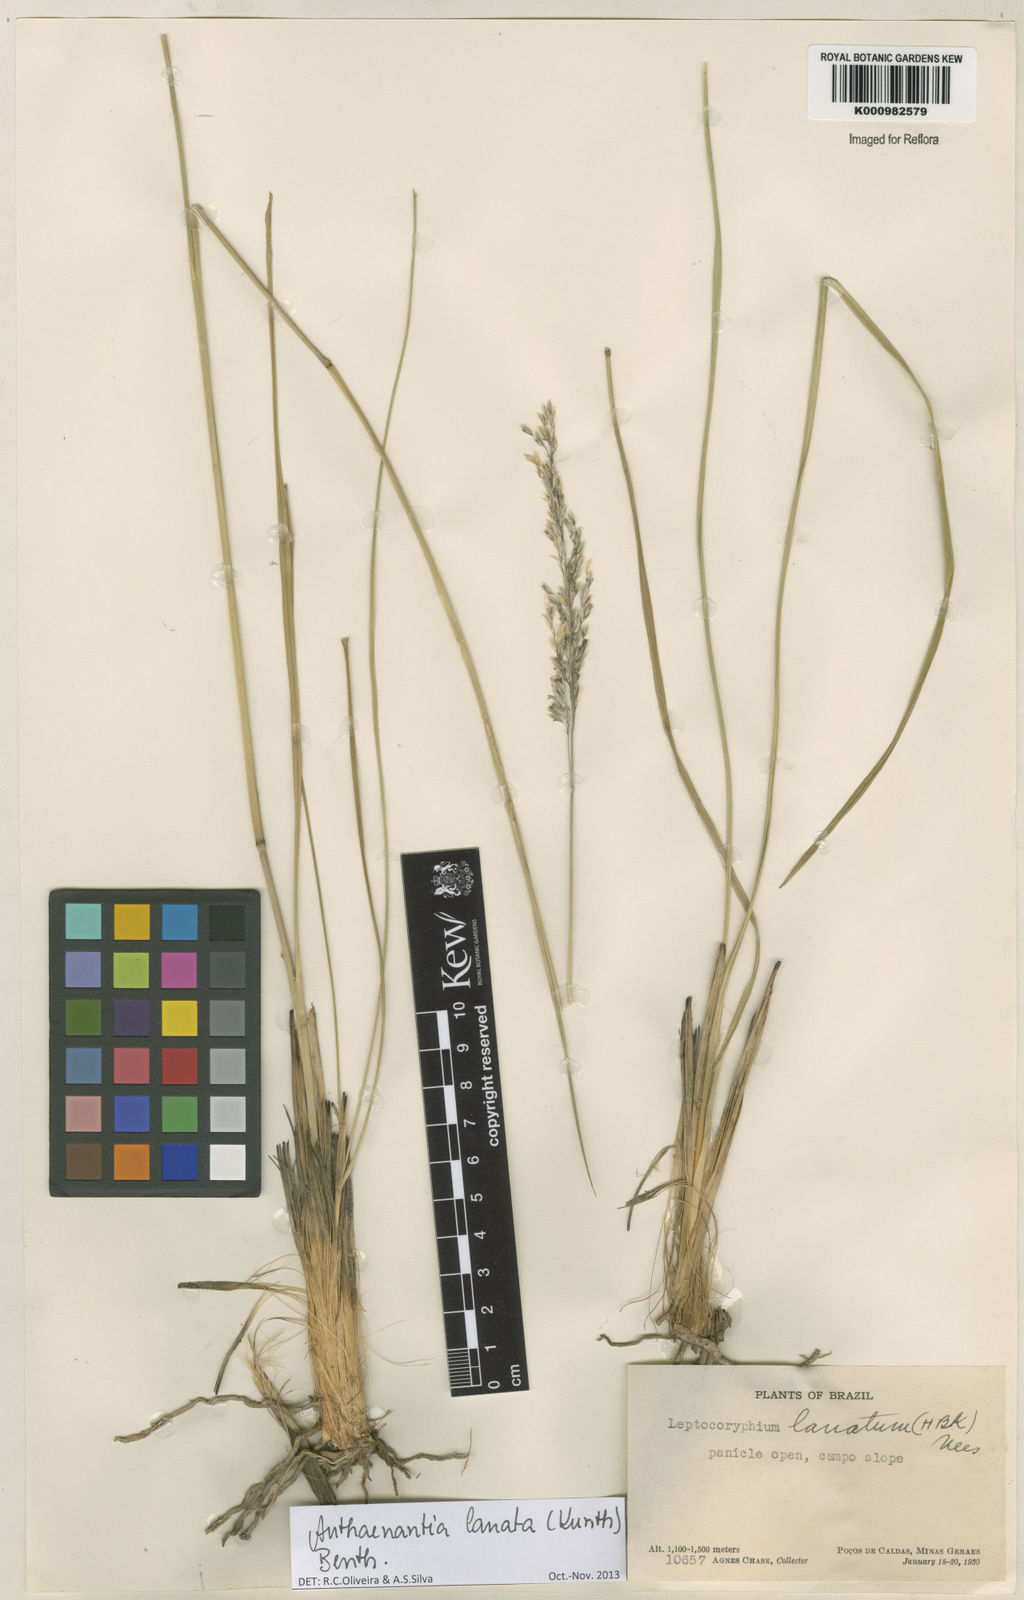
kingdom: Plantae
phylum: Tracheophyta
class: Liliopsida
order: Poales
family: Poaceae
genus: Anthenantia
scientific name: Anthenantia lanata
